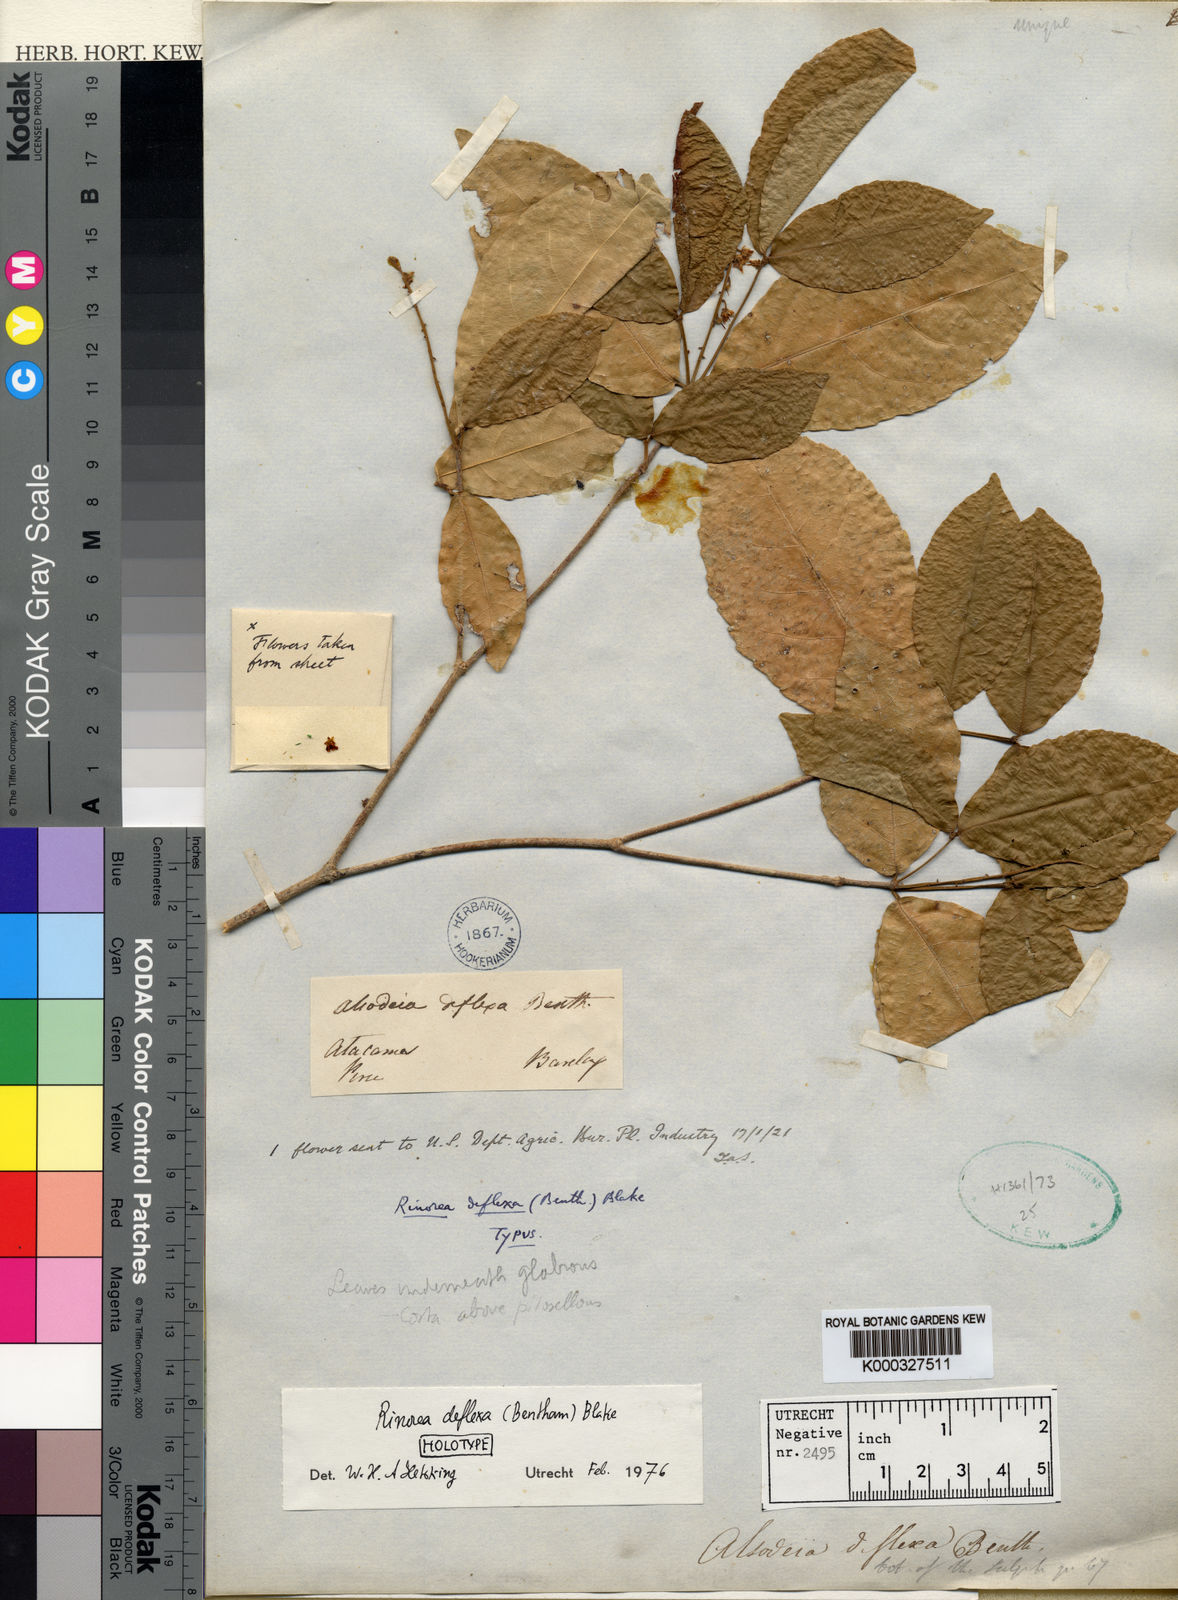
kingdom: Plantae
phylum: Tracheophyta
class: Magnoliopsida
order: Malpighiales
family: Violaceae
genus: Rinorea
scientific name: Rinorea deflexa
